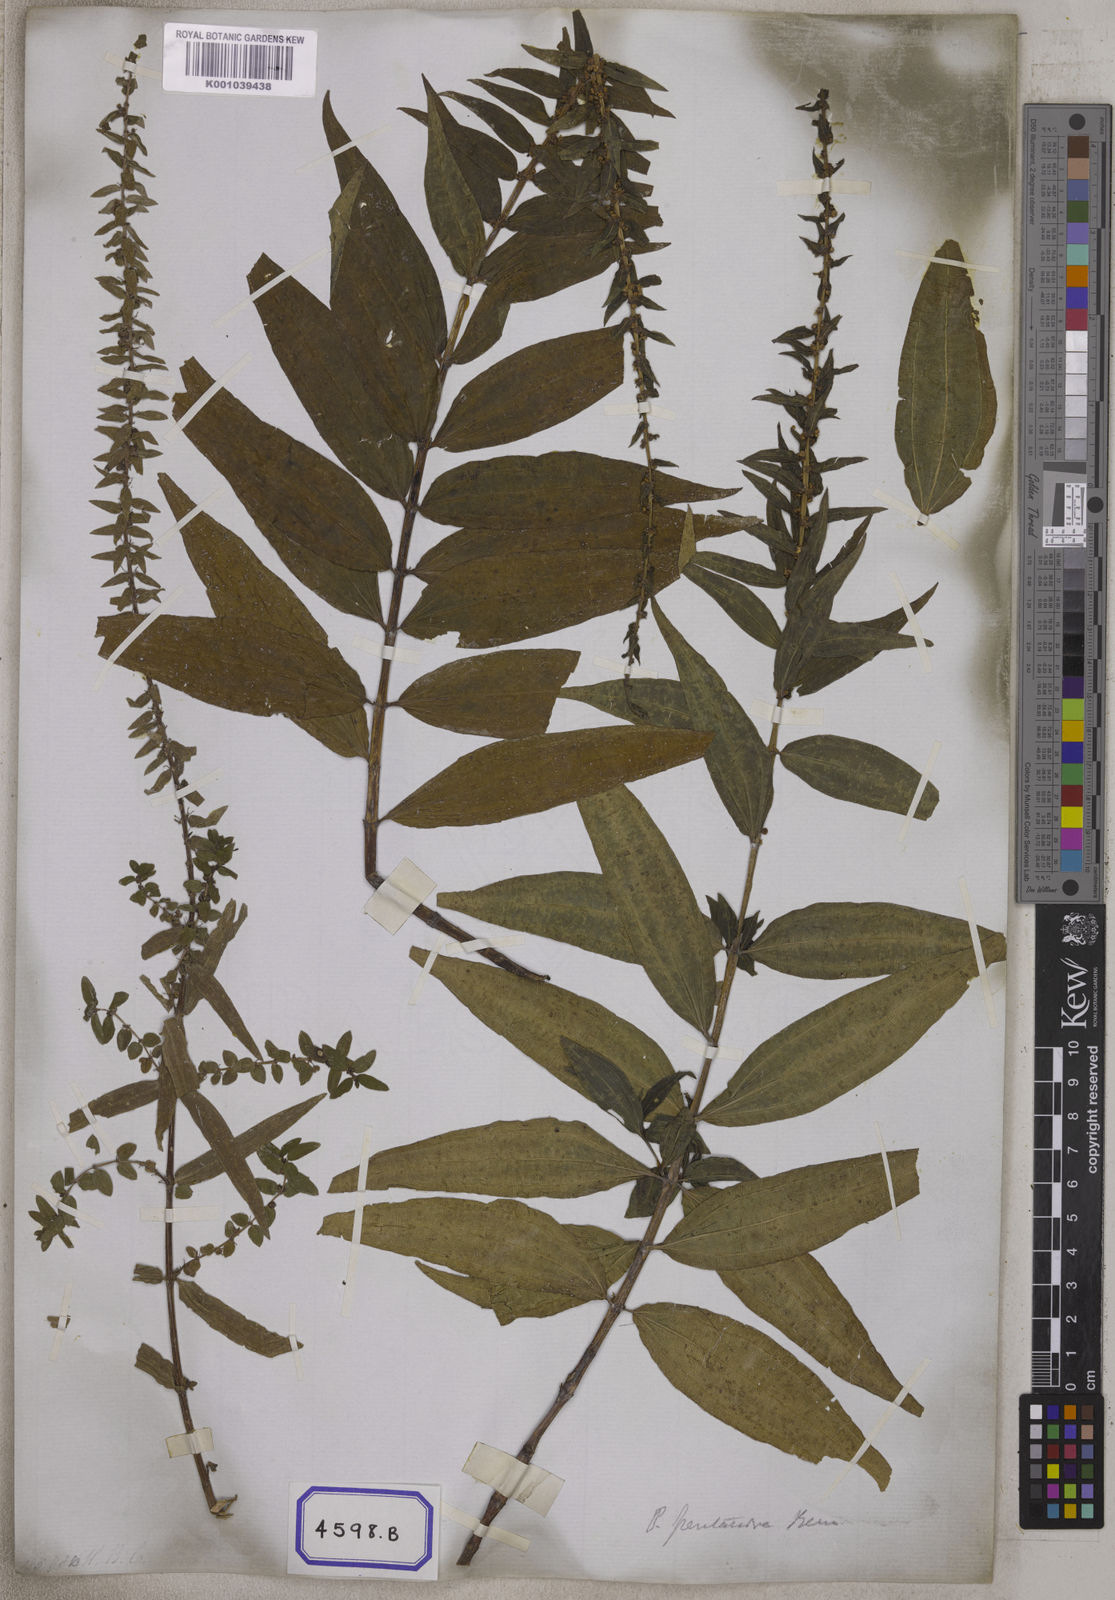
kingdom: Plantae
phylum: Tracheophyta
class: Magnoliopsida
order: Rosales
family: Urticaceae
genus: Gonostegia
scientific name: Gonostegia pentandra
